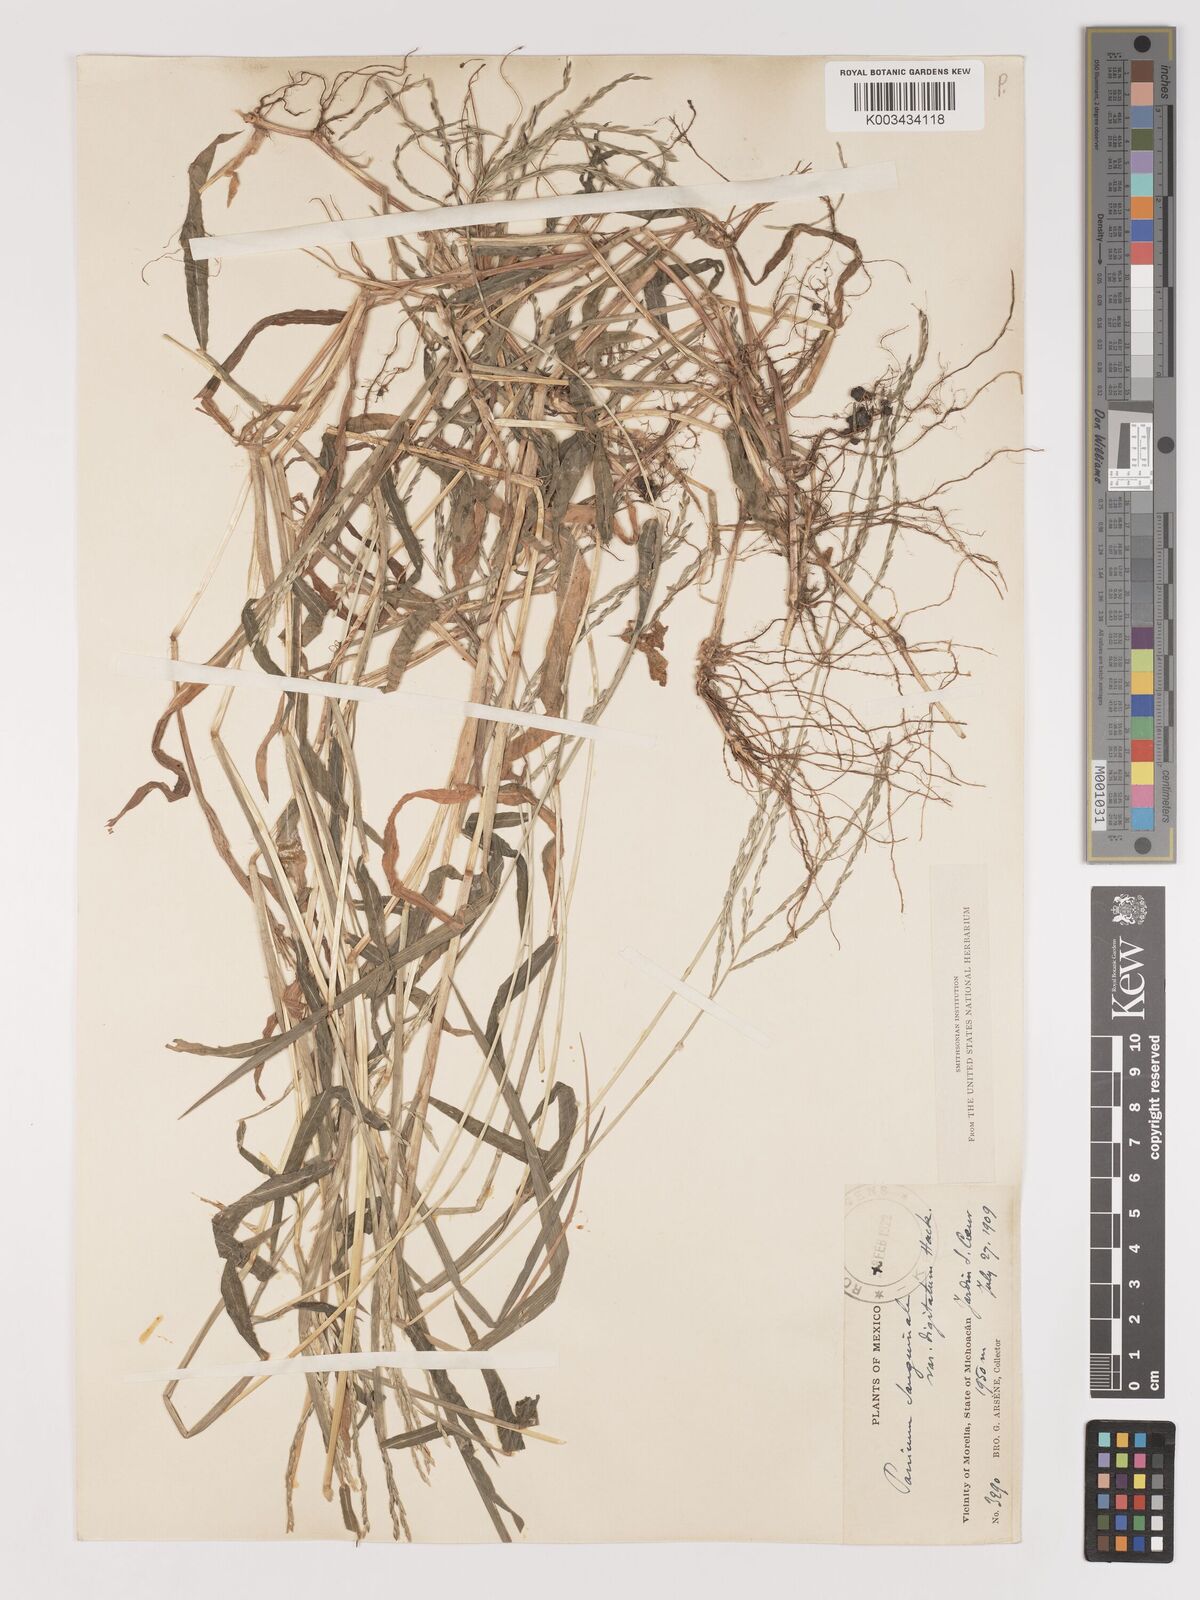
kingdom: Plantae
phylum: Tracheophyta
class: Liliopsida
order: Poales
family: Poaceae
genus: Digitaria
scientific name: Digitaria ciliaris
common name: Tropical finger-grass
